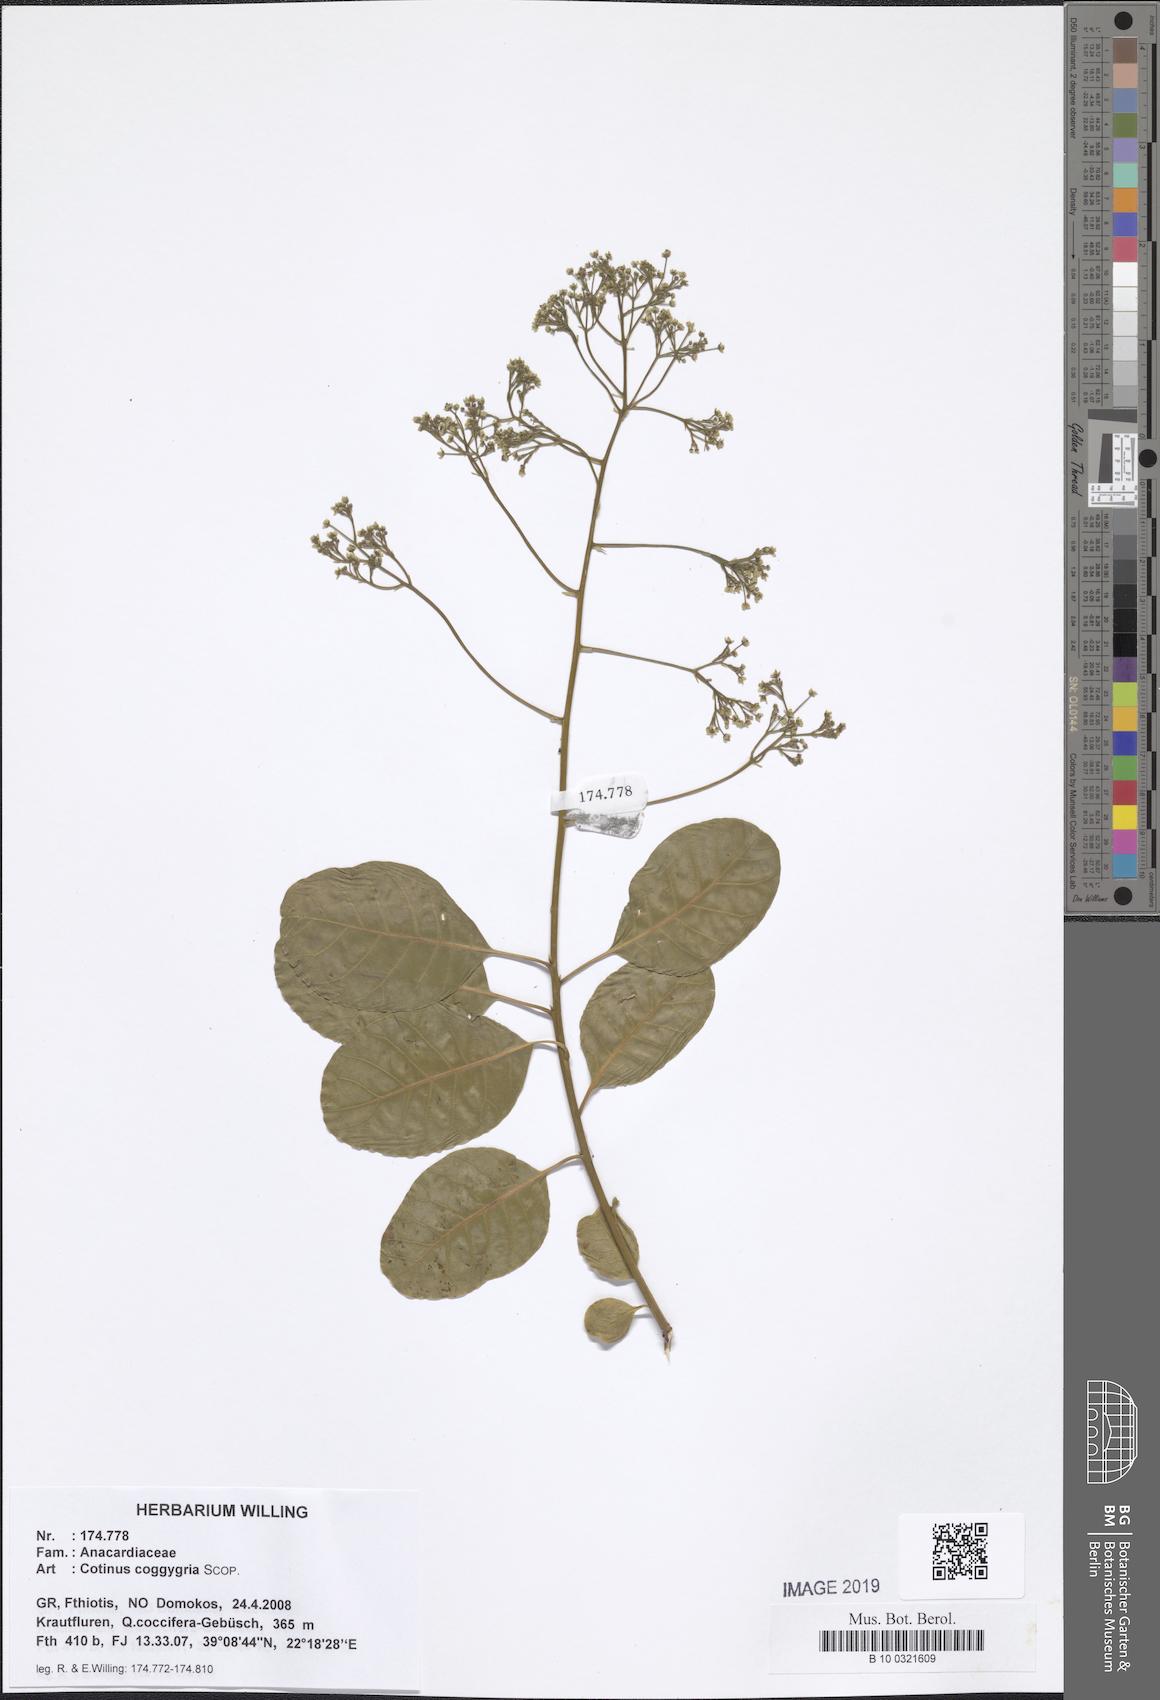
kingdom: Plantae
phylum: Tracheophyta
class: Magnoliopsida
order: Sapindales
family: Anacardiaceae
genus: Cotinus
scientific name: Cotinus coggygria
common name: Smoke-tree
